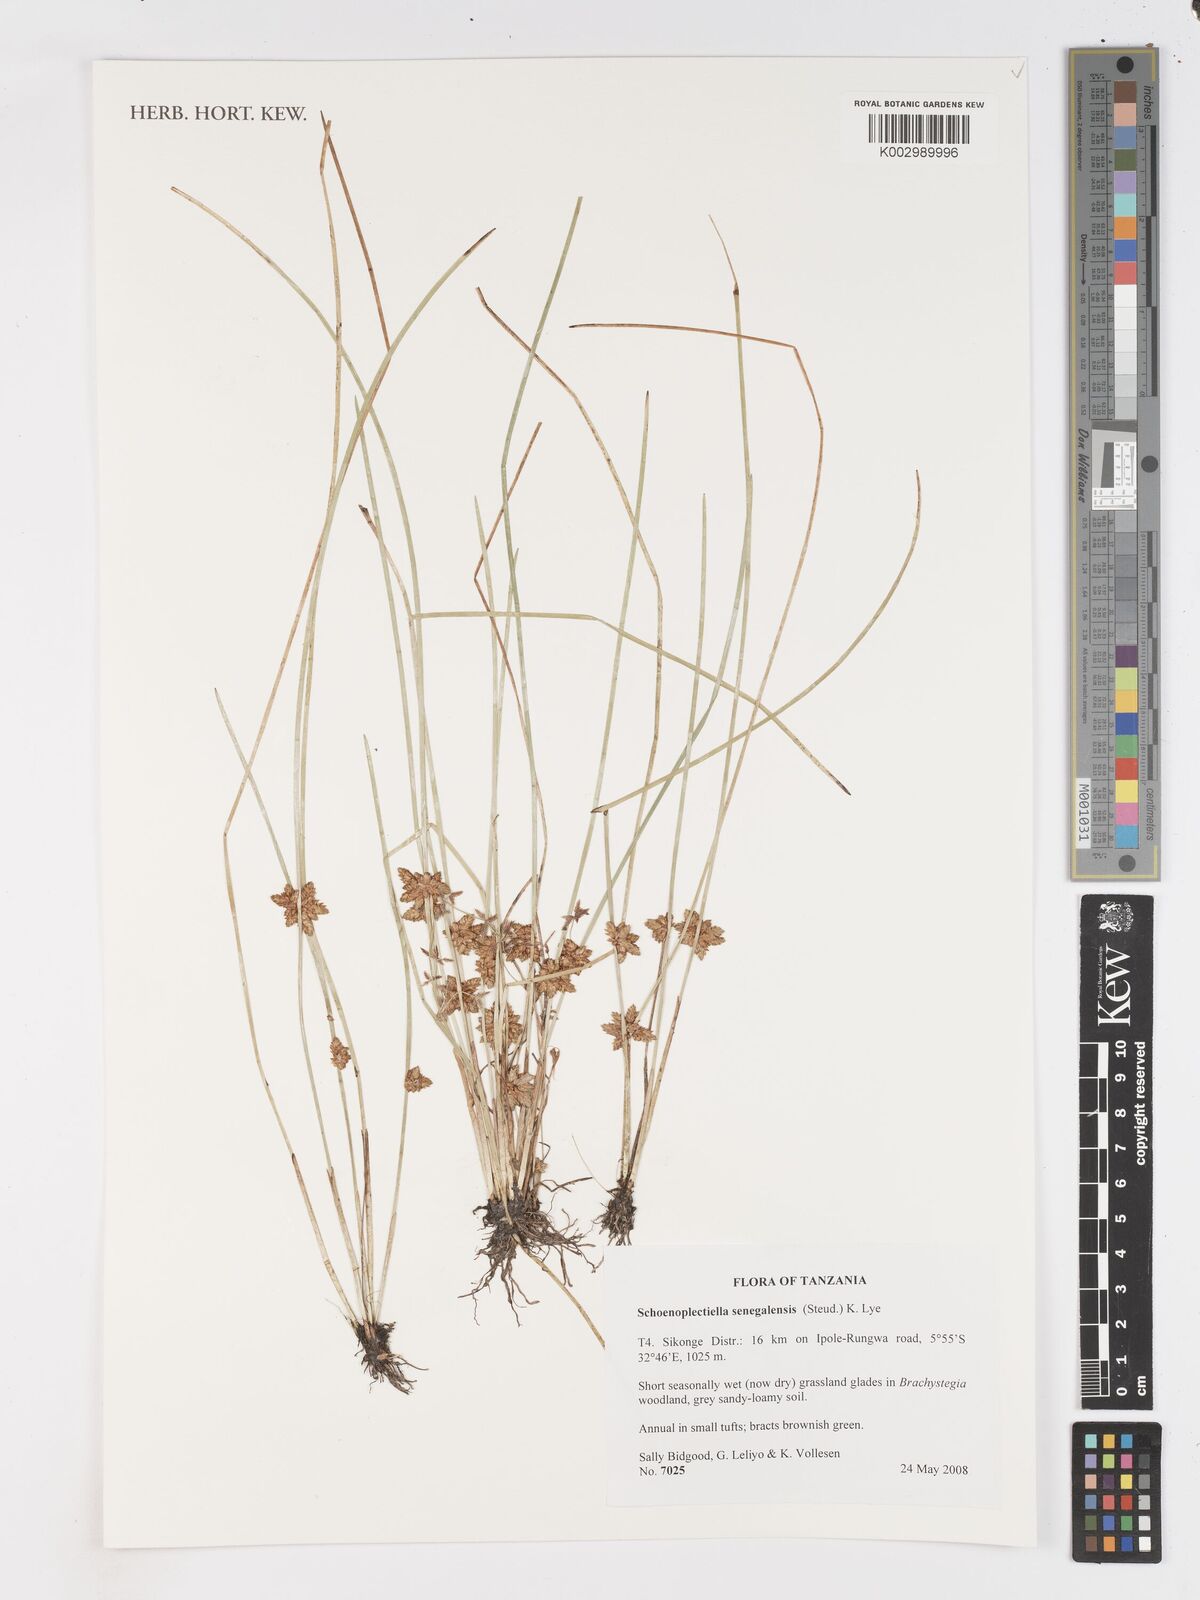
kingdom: Plantae
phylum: Tracheophyta
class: Liliopsida
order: Poales
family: Cyperaceae
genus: Schoenoplectiella
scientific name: Schoenoplectiella senegalensis
